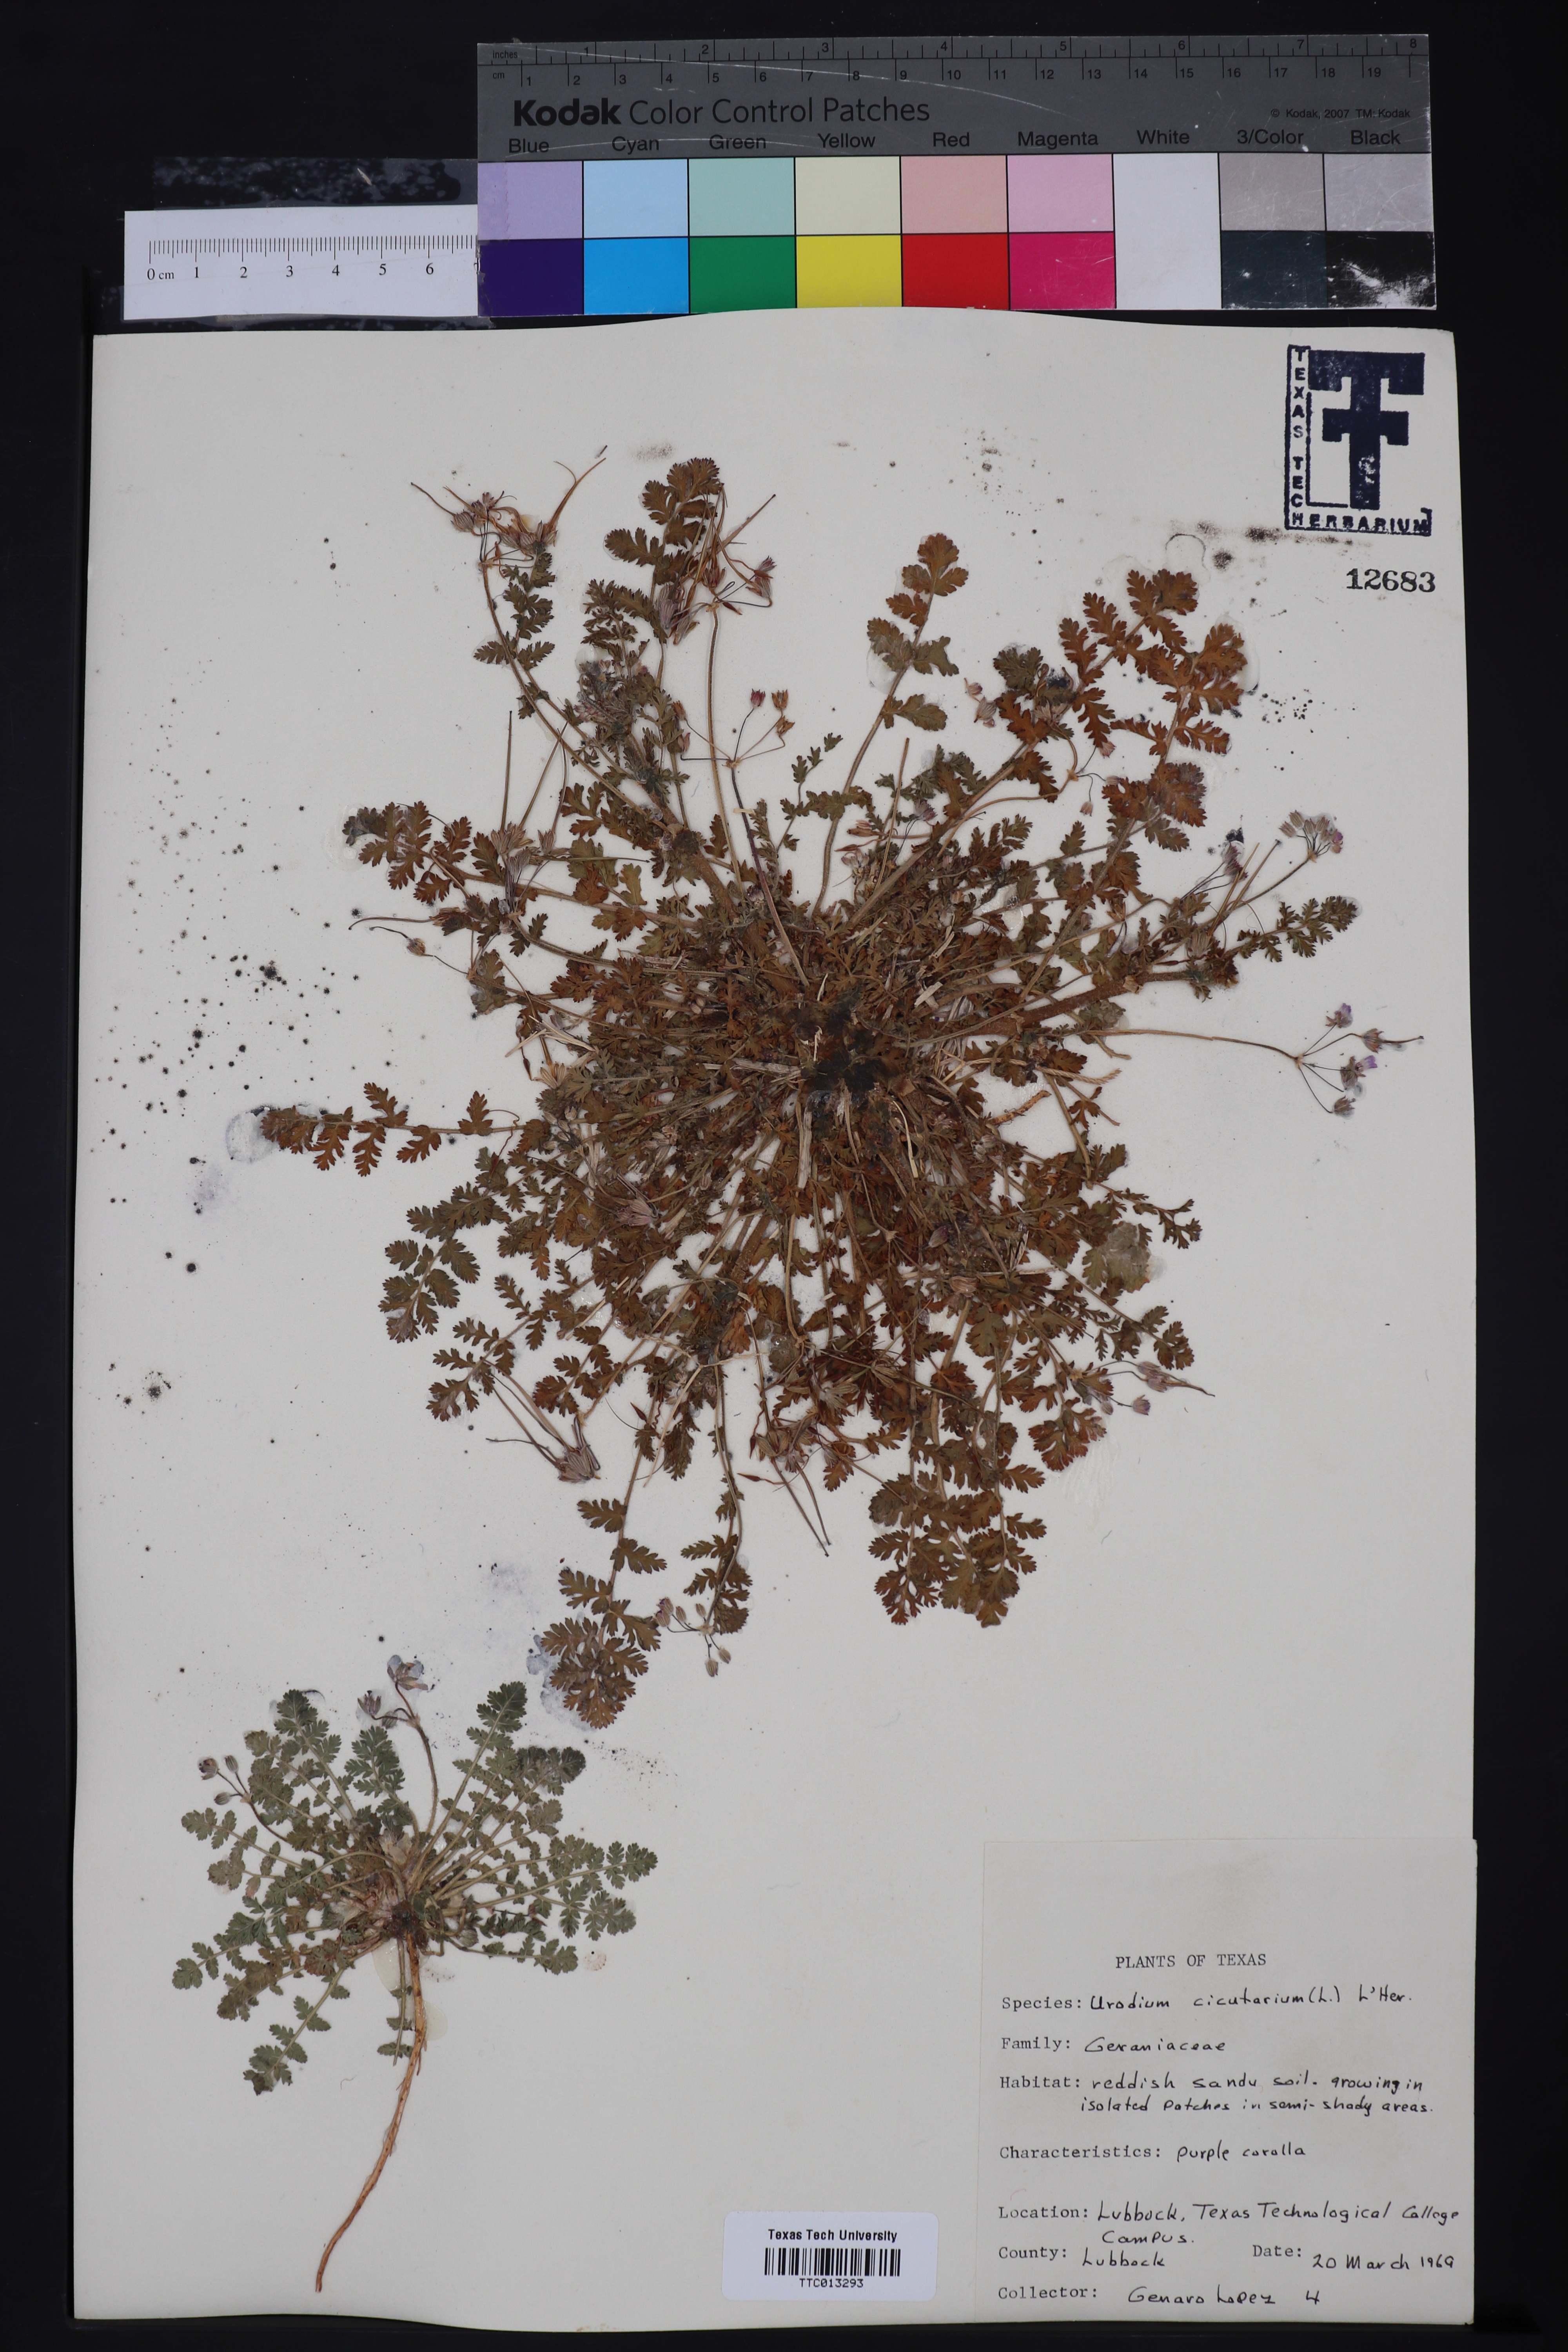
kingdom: Plantae
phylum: Tracheophyta
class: Magnoliopsida
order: Geraniales
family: Geraniaceae
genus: Erodium
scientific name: Erodium cicutarium
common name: Common stork's-bill
